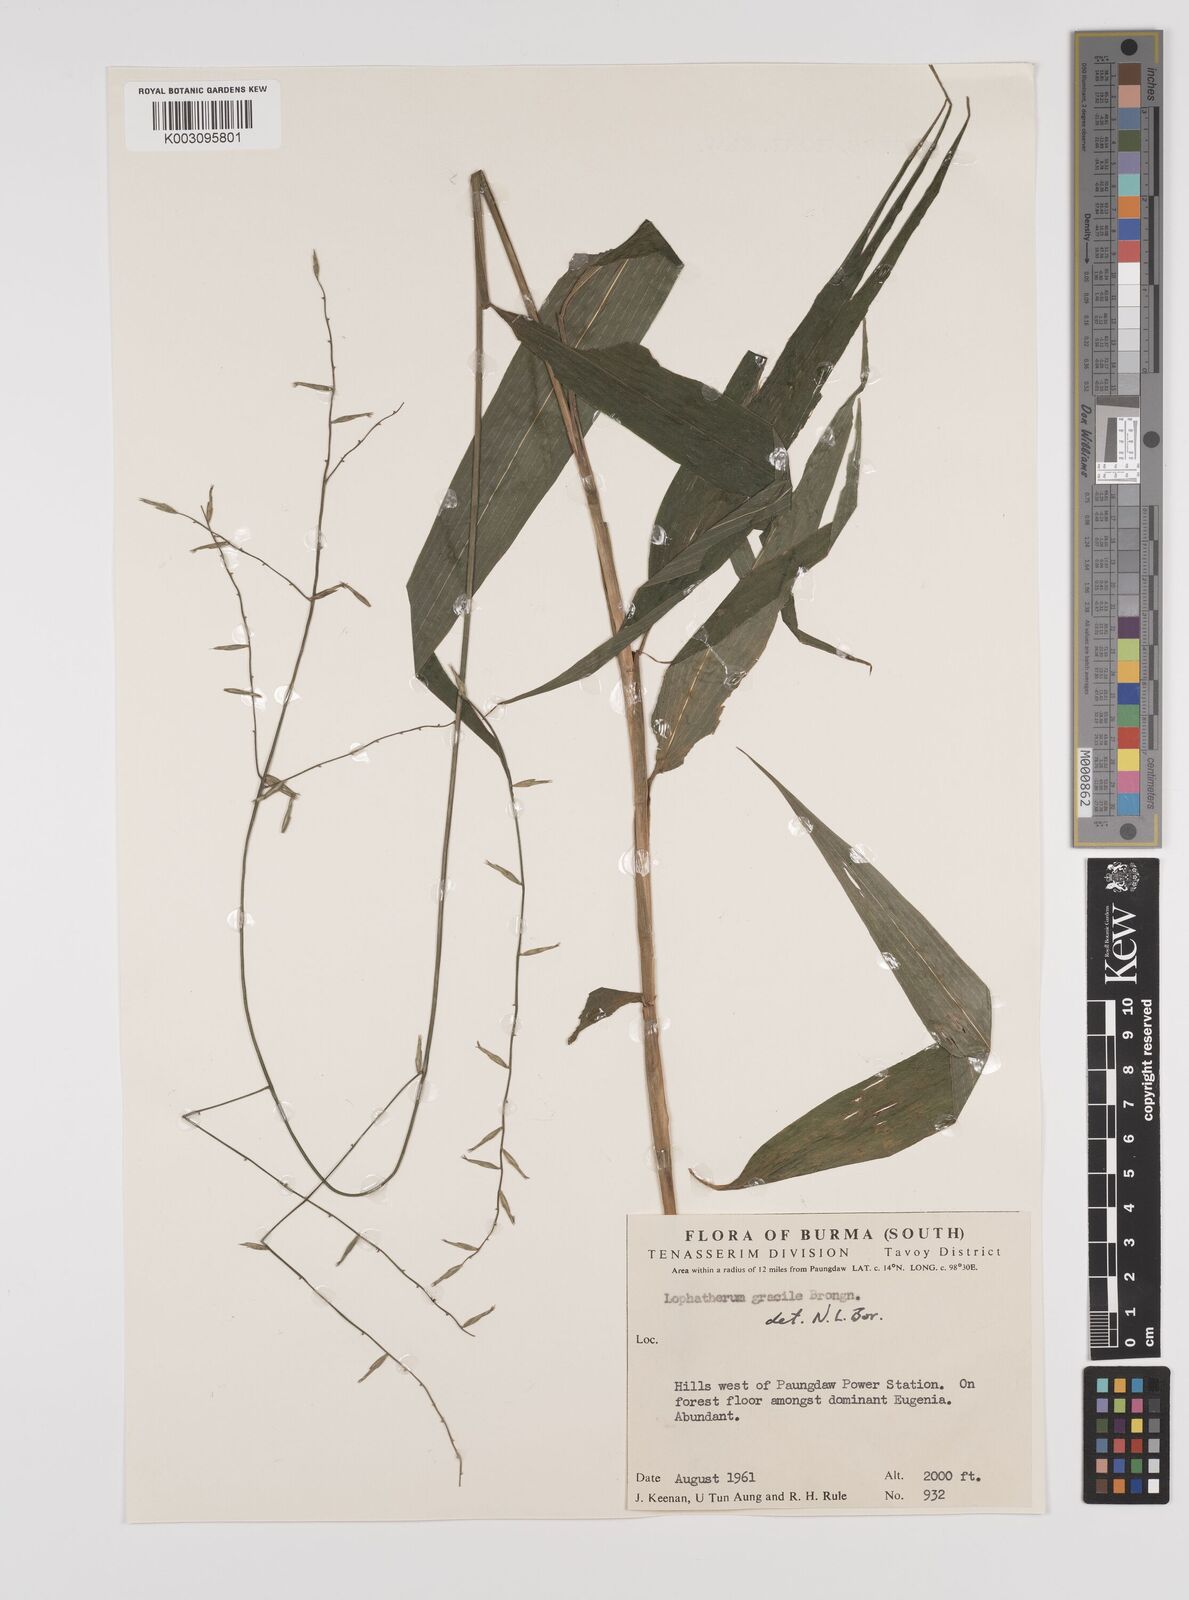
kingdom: Plantae
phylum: Tracheophyta
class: Liliopsida
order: Poales
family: Poaceae
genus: Lophatherum
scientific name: Lophatherum gracile
